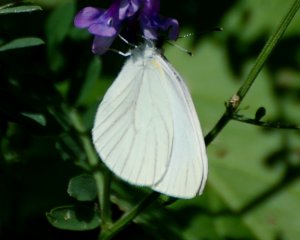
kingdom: Animalia
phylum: Arthropoda
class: Insecta
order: Lepidoptera
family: Pieridae
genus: Pieris
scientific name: Pieris oleracea
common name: Mustard White
